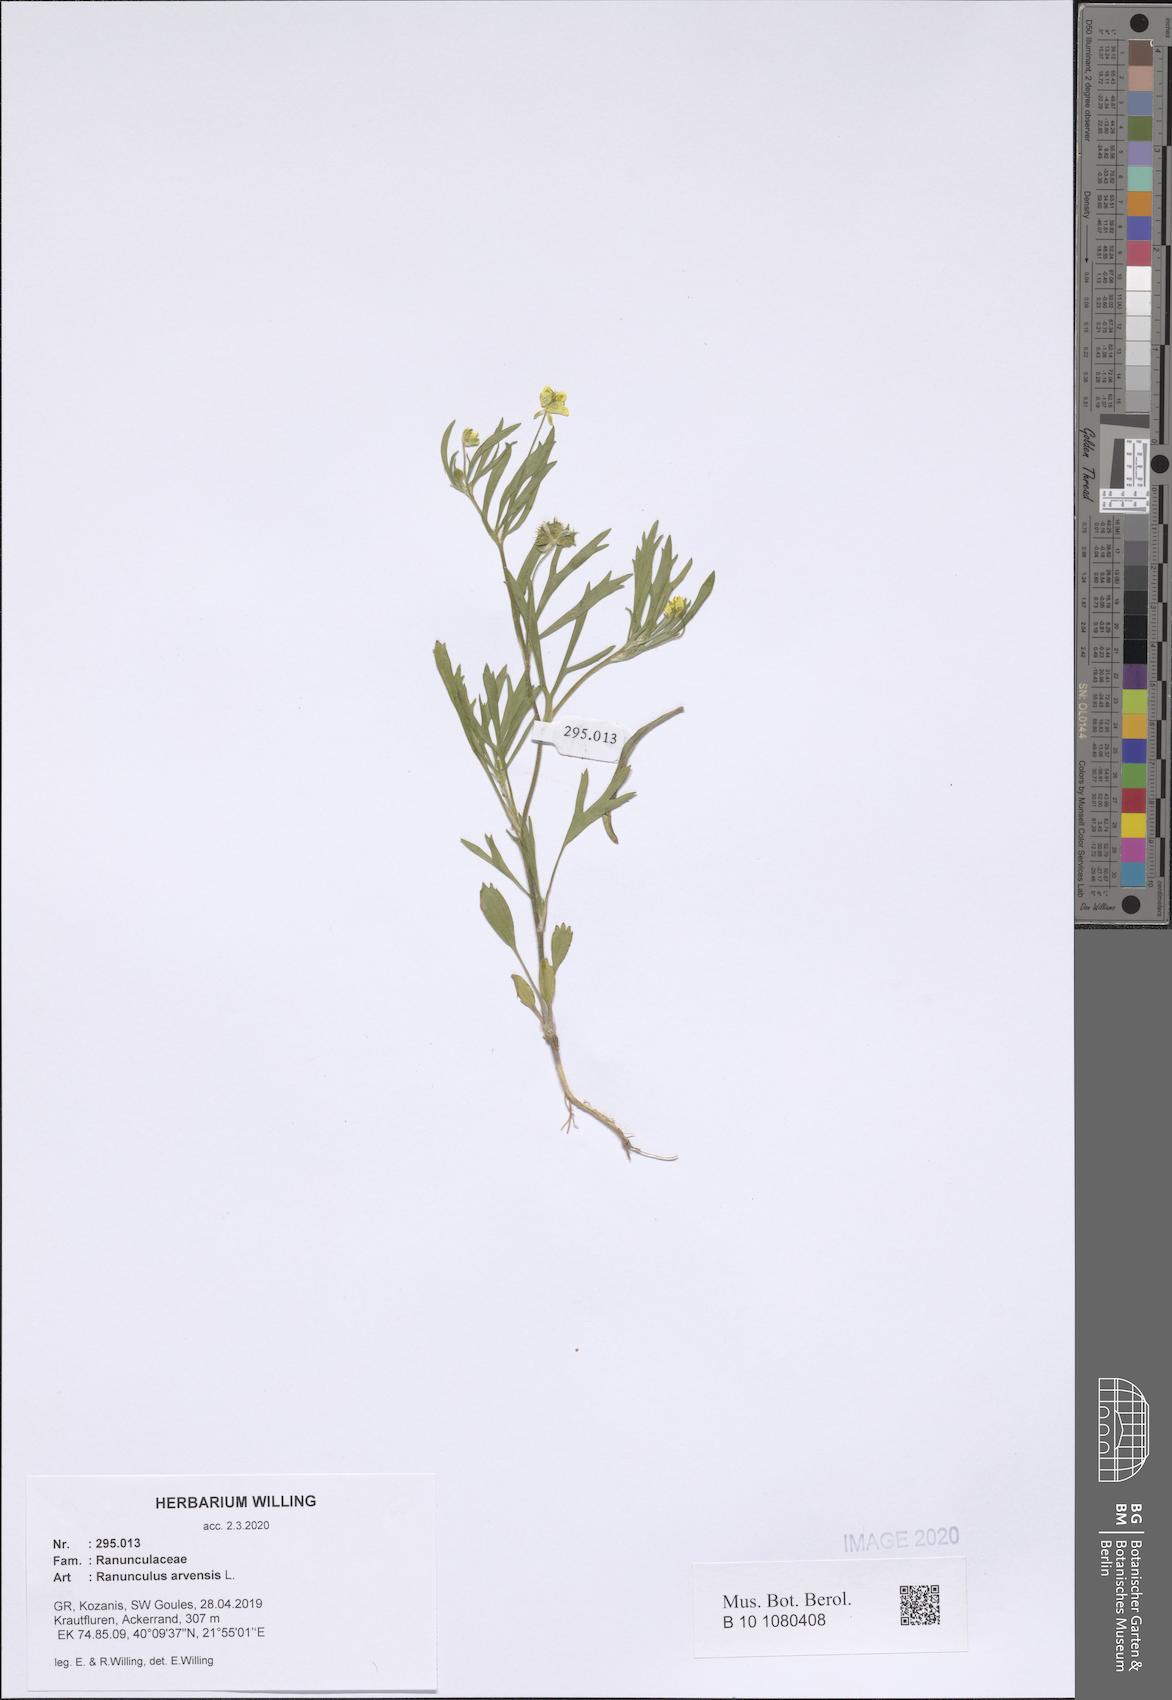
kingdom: Plantae
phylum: Tracheophyta
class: Magnoliopsida
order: Ranunculales
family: Ranunculaceae
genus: Ranunculus
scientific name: Ranunculus arvensis
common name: Corn buttercup
